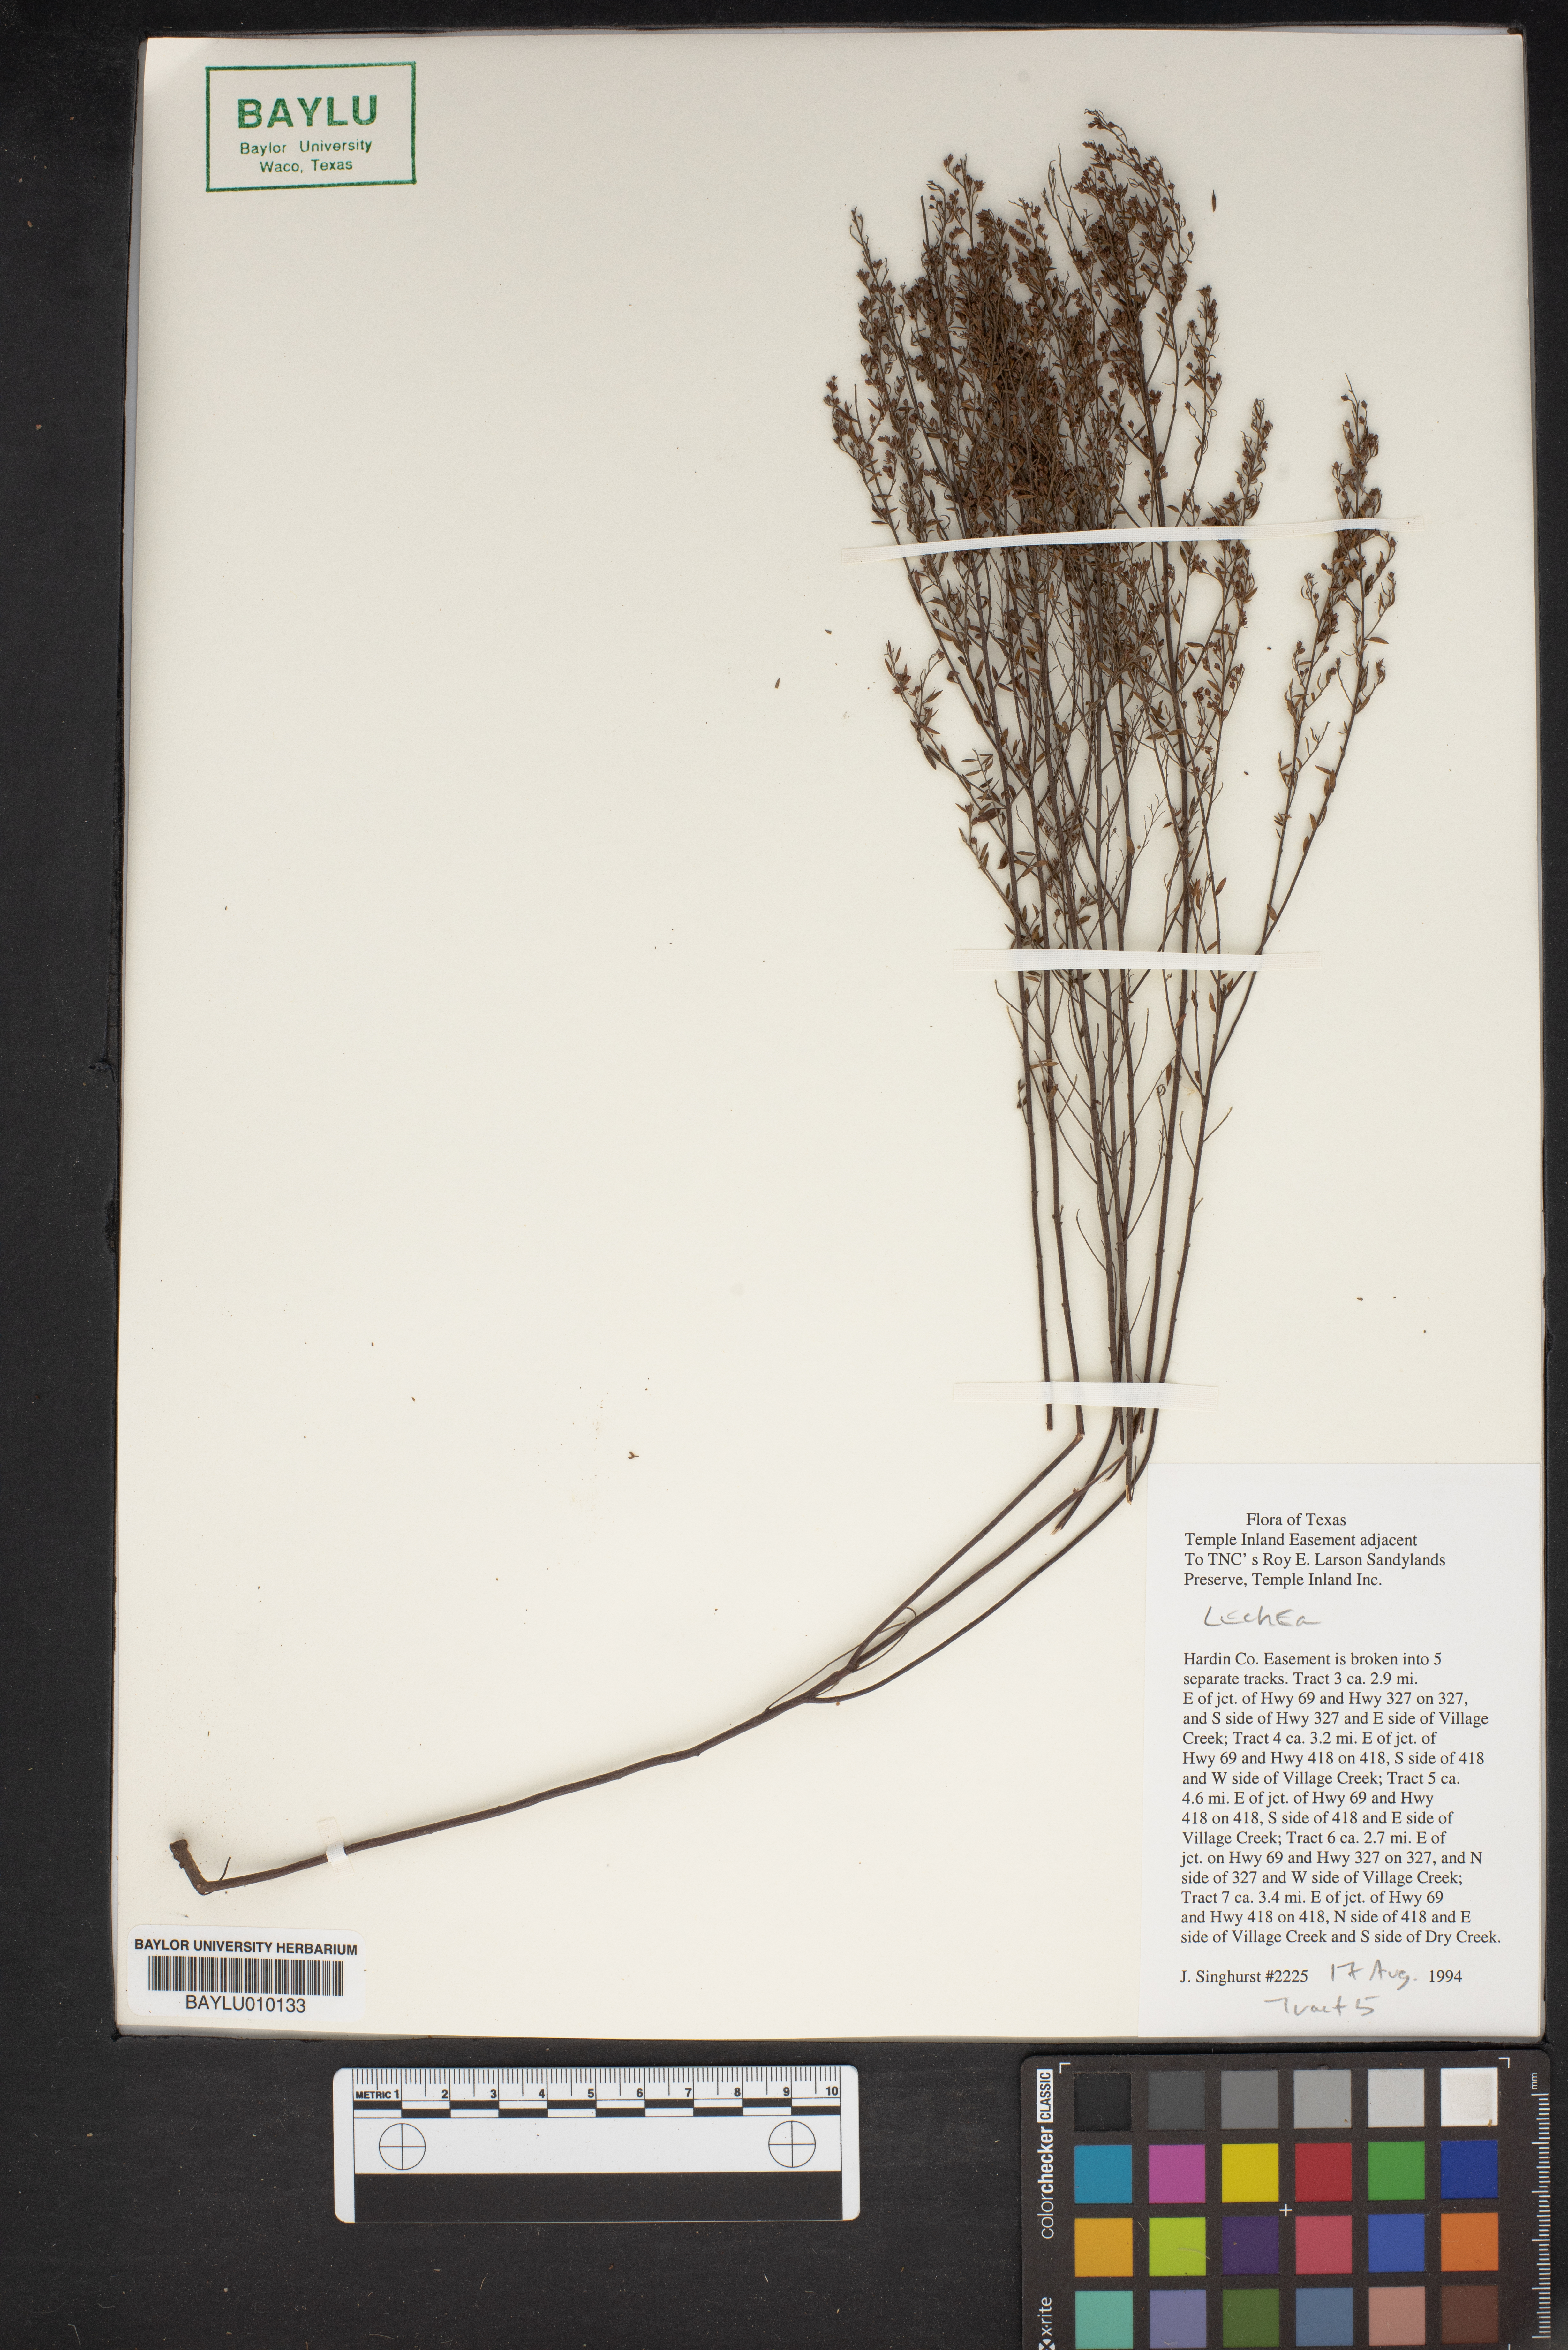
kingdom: Plantae
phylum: Tracheophyta
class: Magnoliopsida
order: Malvales
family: Cistaceae
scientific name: Cistaceae
